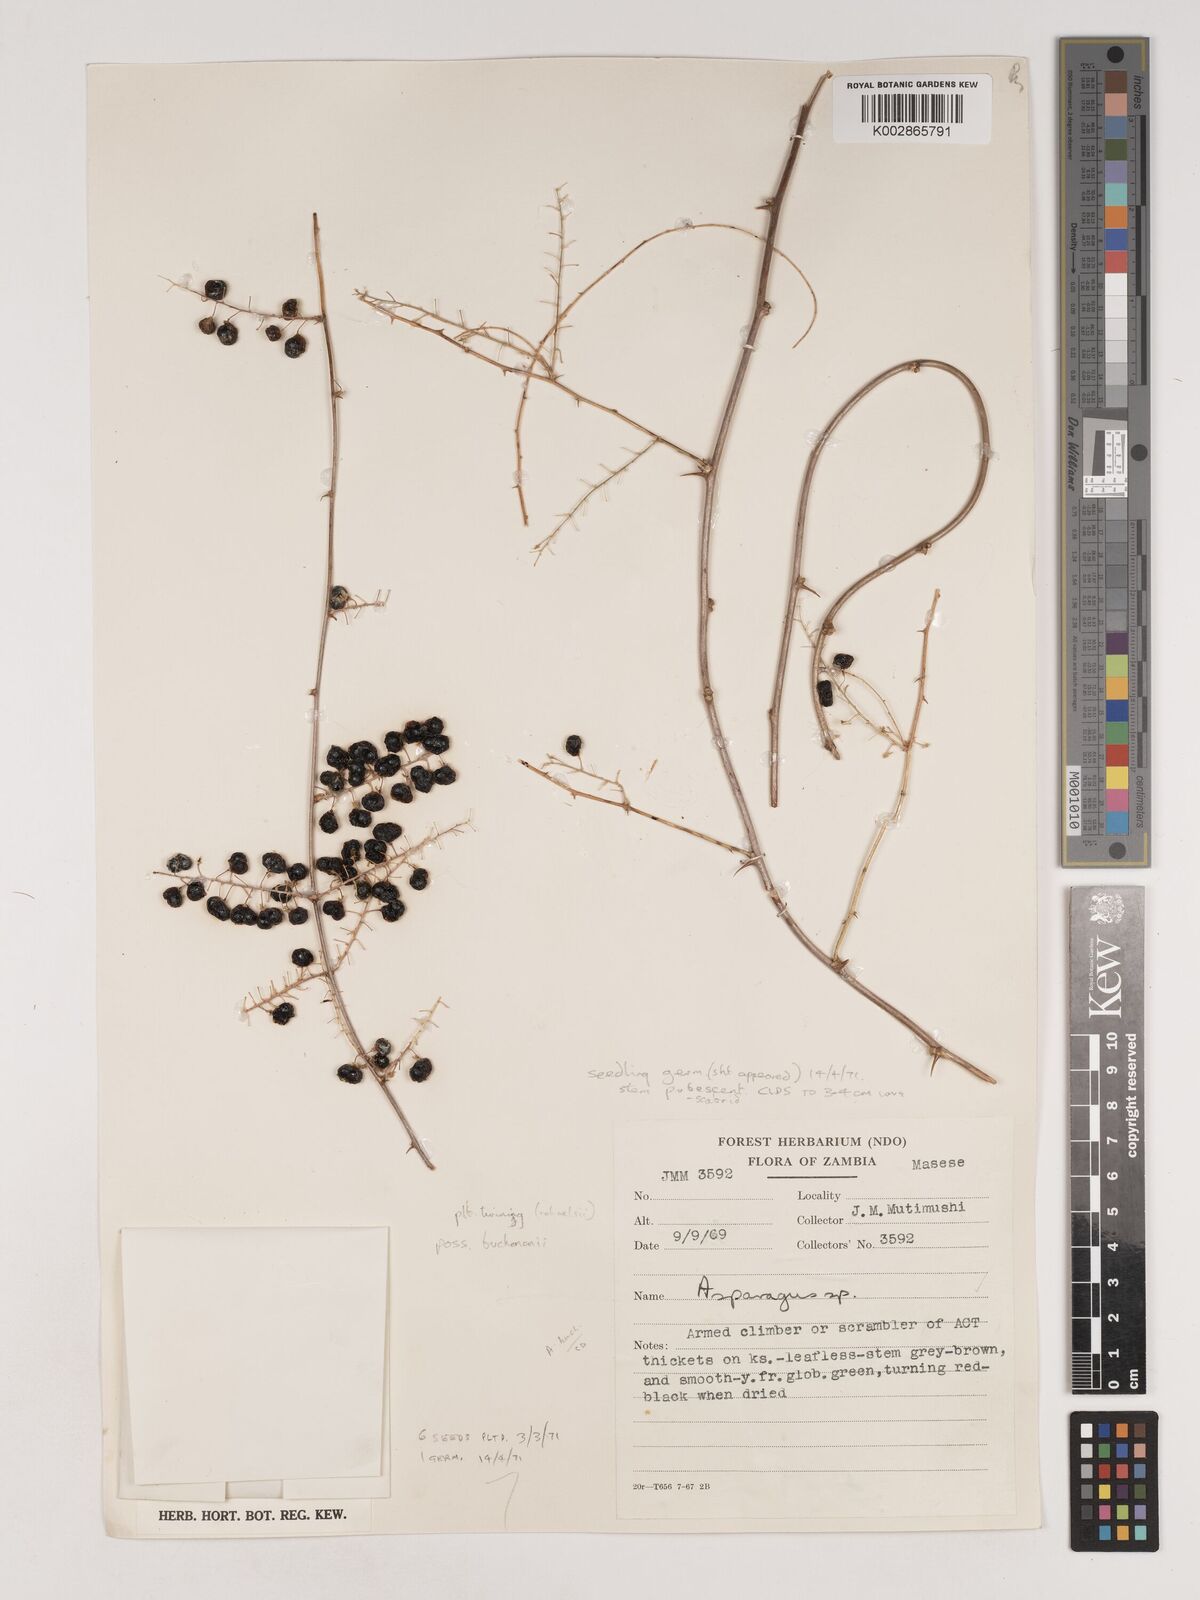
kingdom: Plantae
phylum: Tracheophyta
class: Liliopsida
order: Asparagales
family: Asparagaceae
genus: Asparagus
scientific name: Asparagus buchananii
